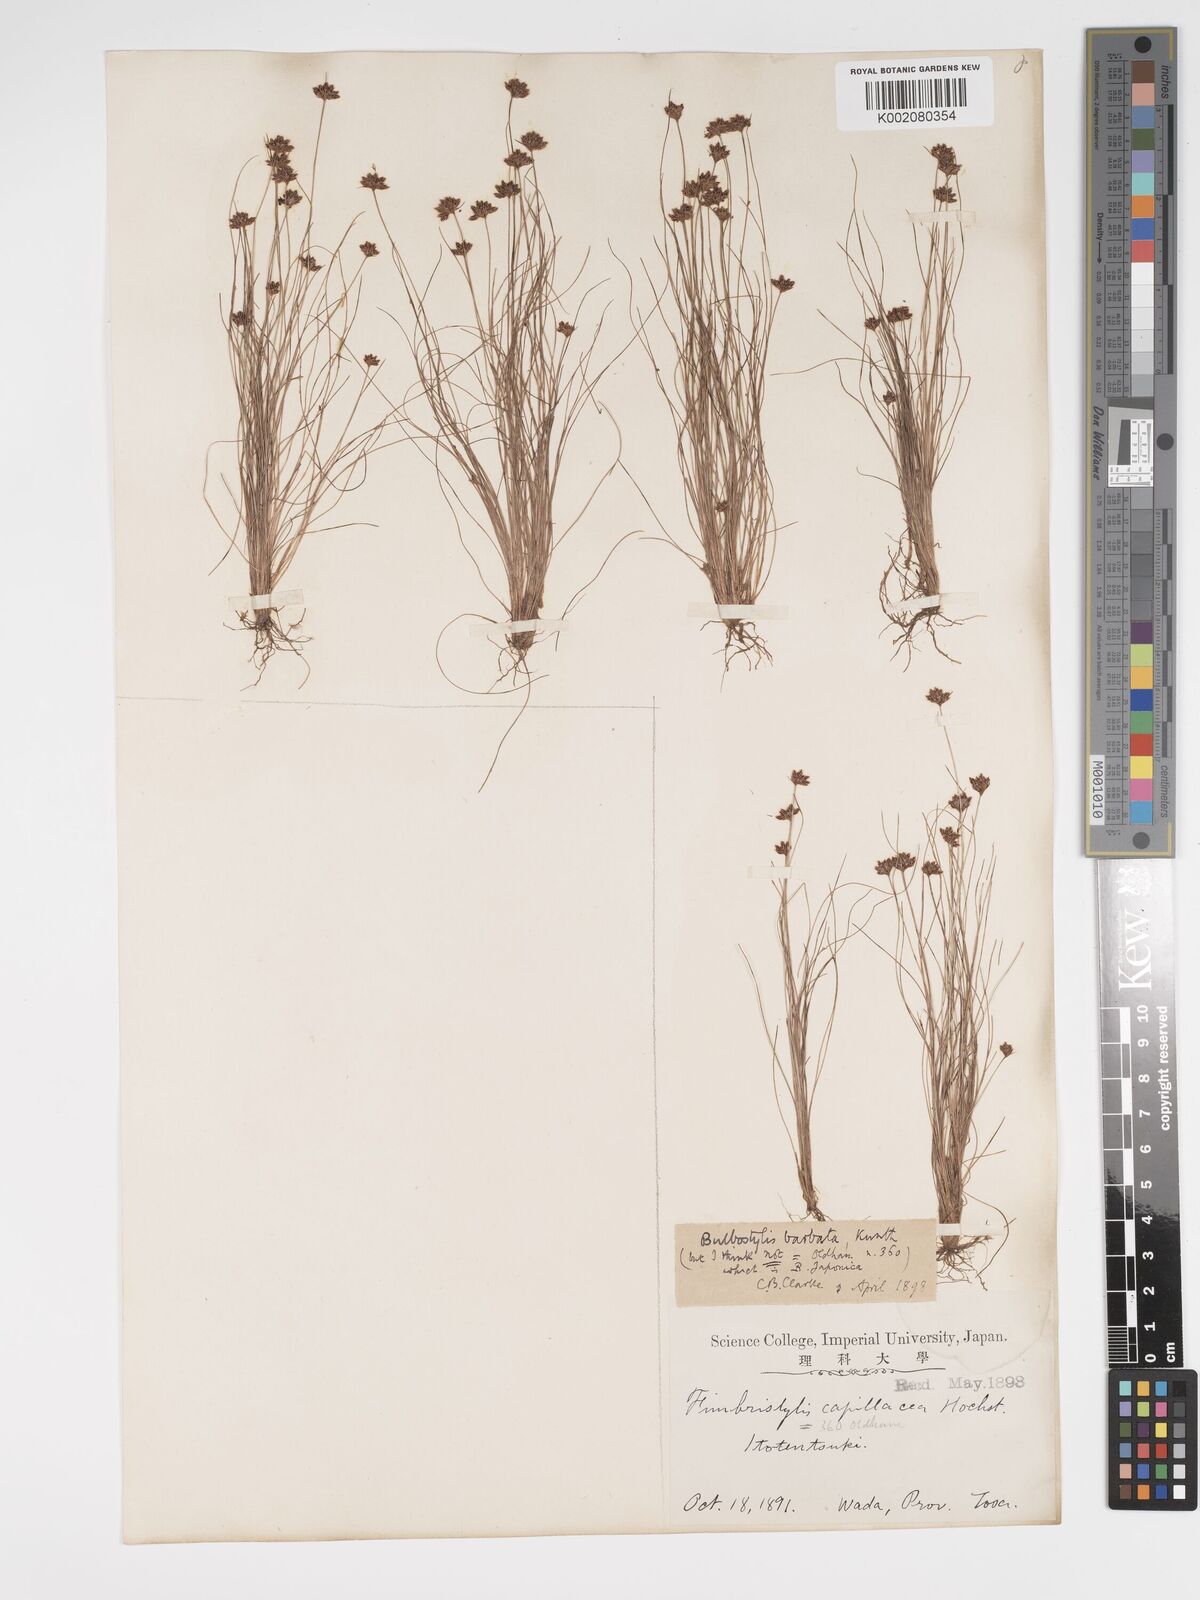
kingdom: Plantae
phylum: Tracheophyta
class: Liliopsida
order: Poales
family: Cyperaceae
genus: Bulbostylis
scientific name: Bulbostylis barbata
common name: Watergrass
